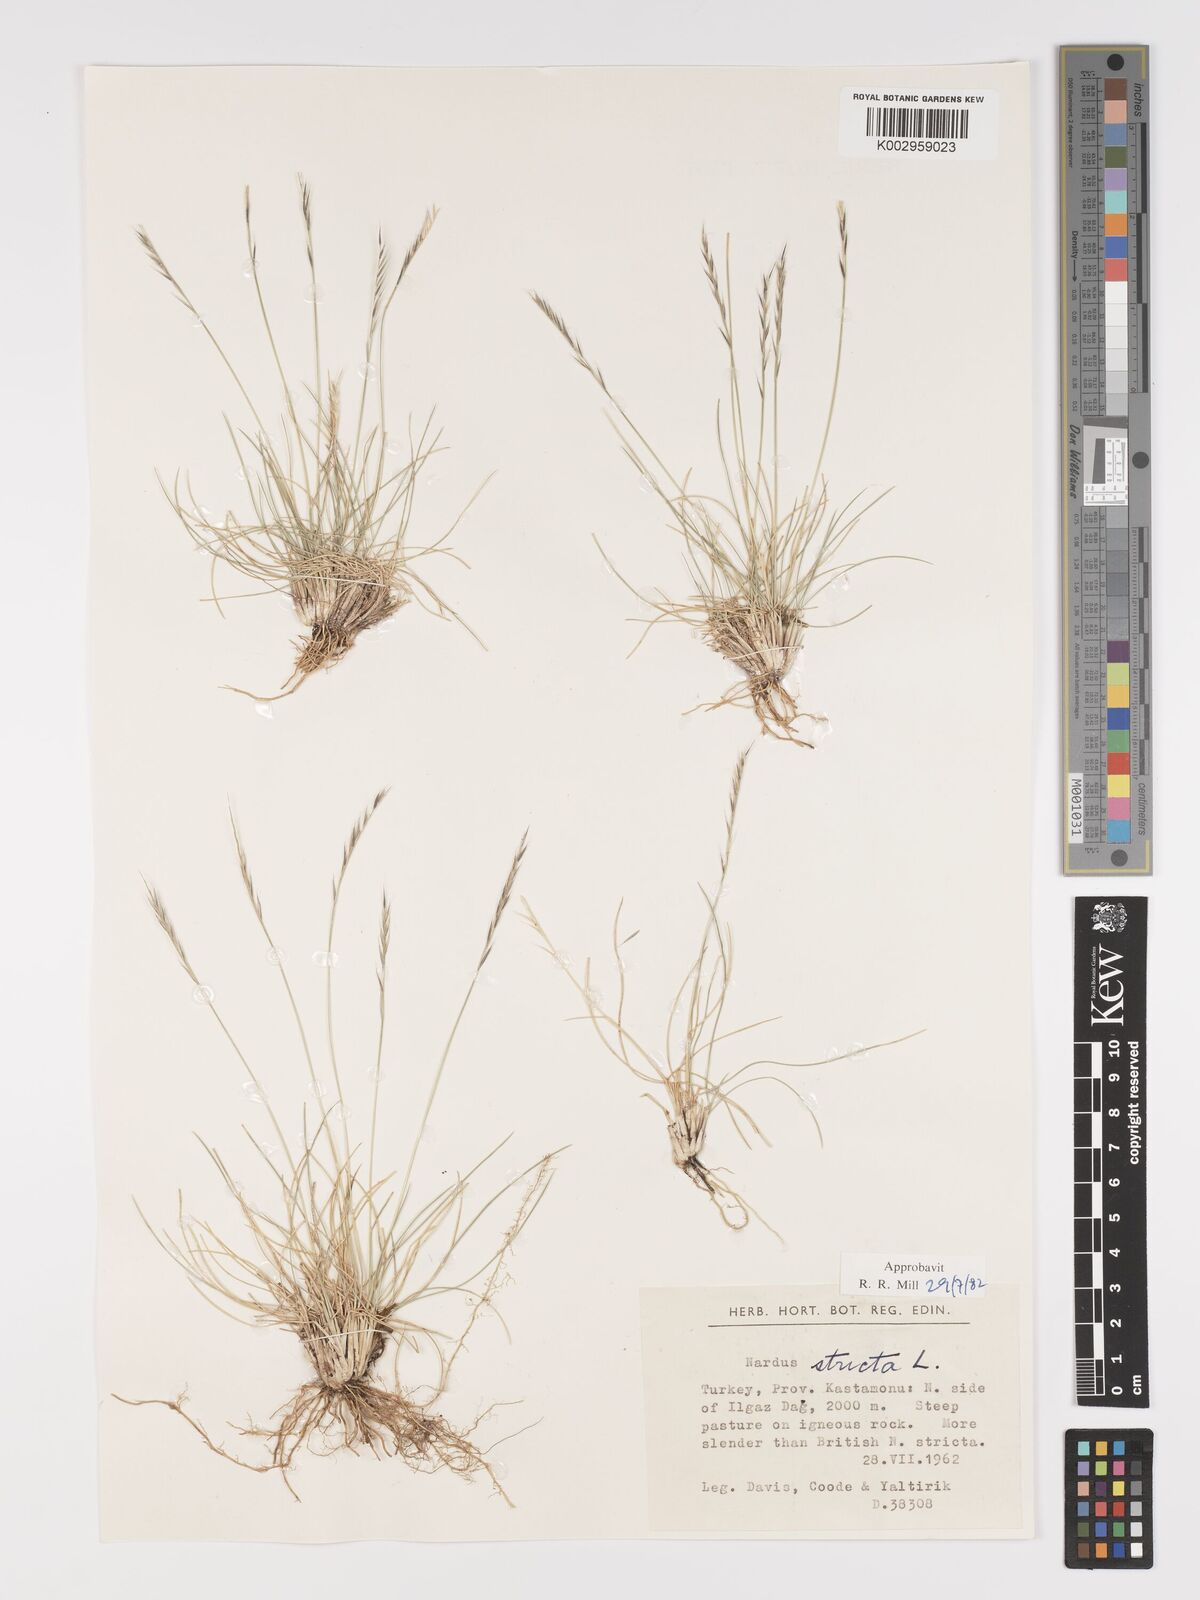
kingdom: Plantae
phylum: Tracheophyta
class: Liliopsida
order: Poales
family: Poaceae
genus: Nardus
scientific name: Nardus stricta
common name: Mat-grass
